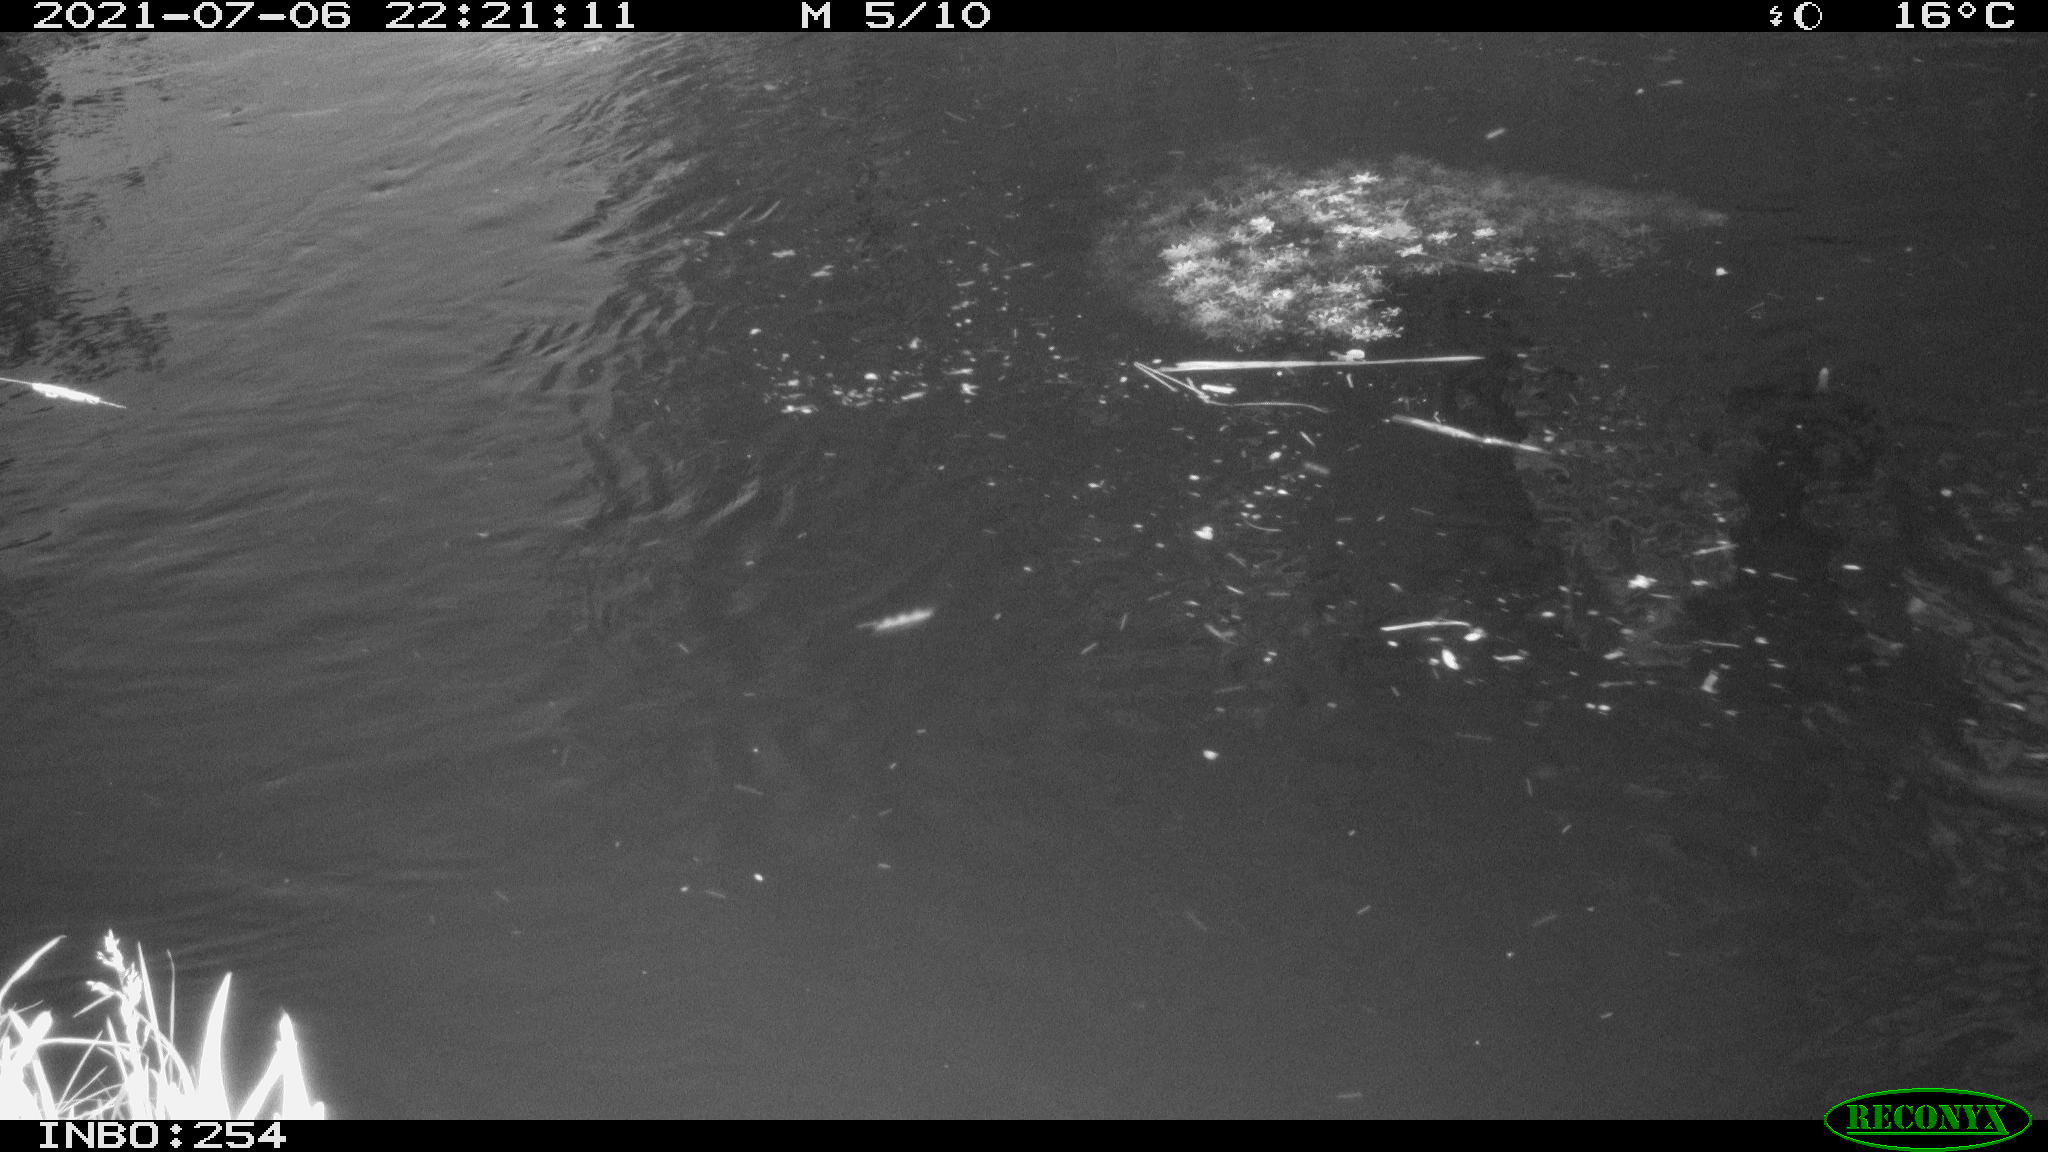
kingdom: Animalia
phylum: Chordata
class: Aves
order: Anseriformes
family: Anatidae
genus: Anas
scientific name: Anas platyrhynchos
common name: Mallard
